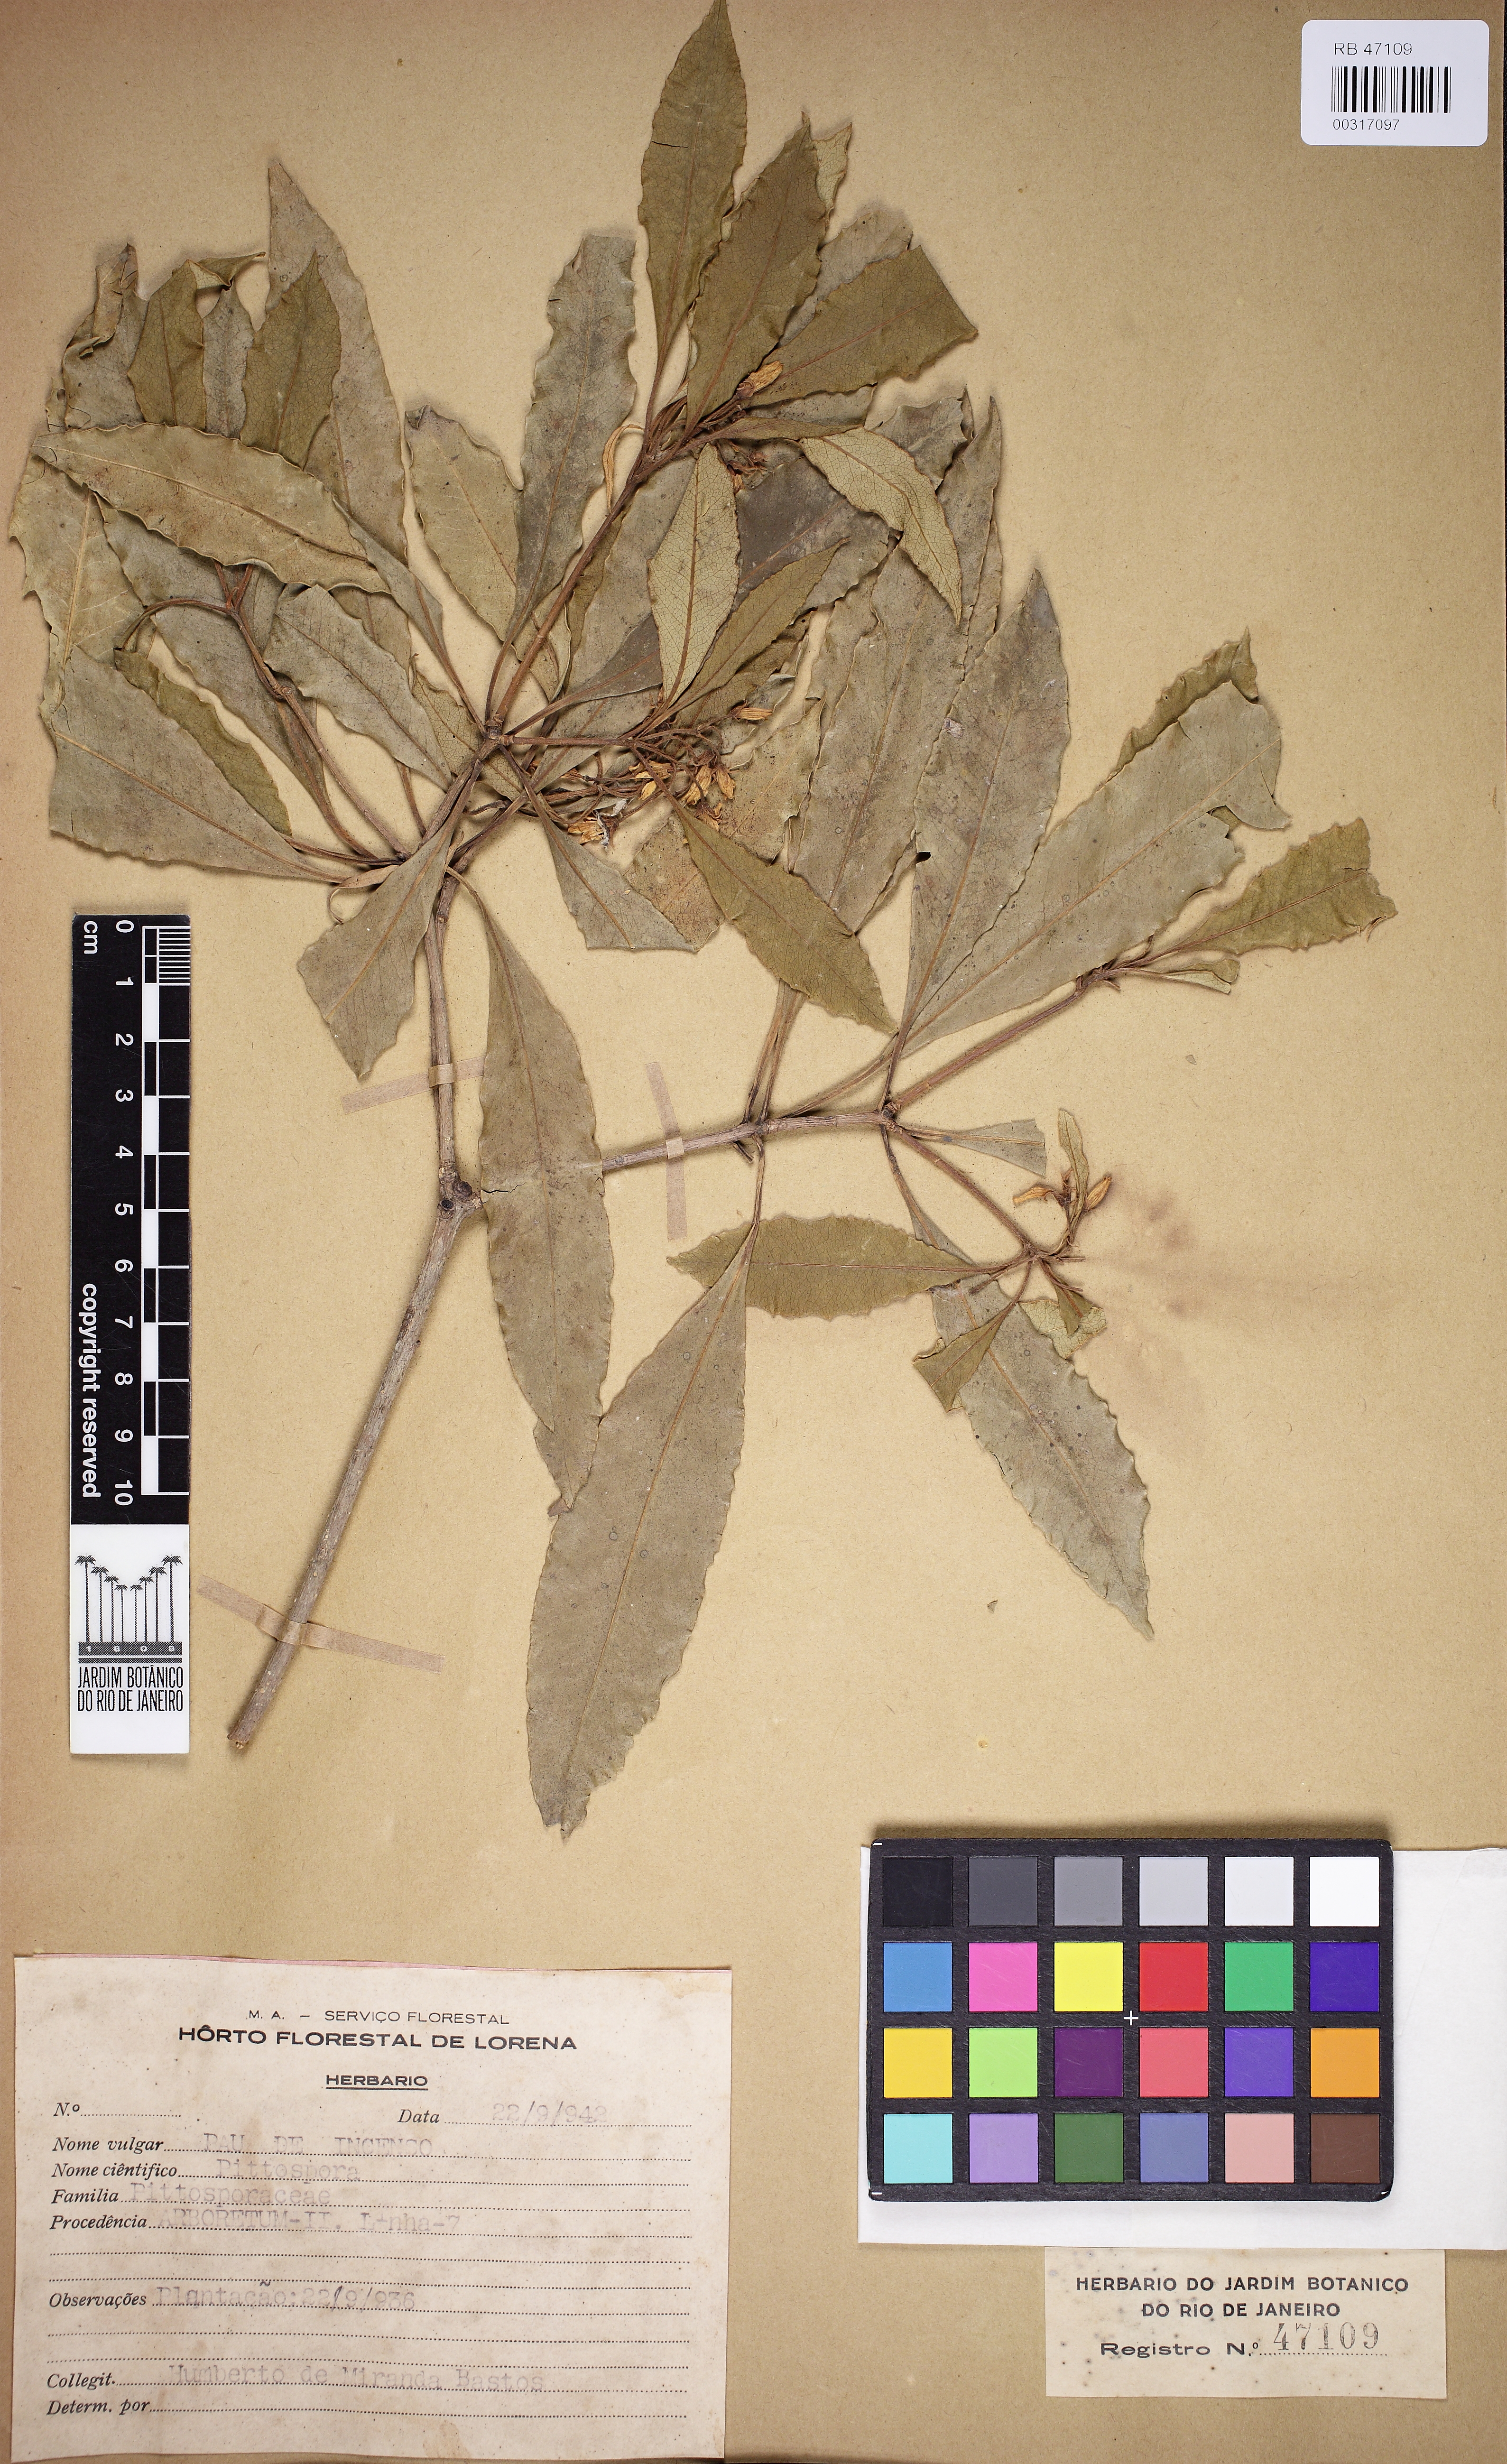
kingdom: Plantae
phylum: Tracheophyta
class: Magnoliopsida
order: Apiales
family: Pittosporaceae
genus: Pittosporum
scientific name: Pittosporum
